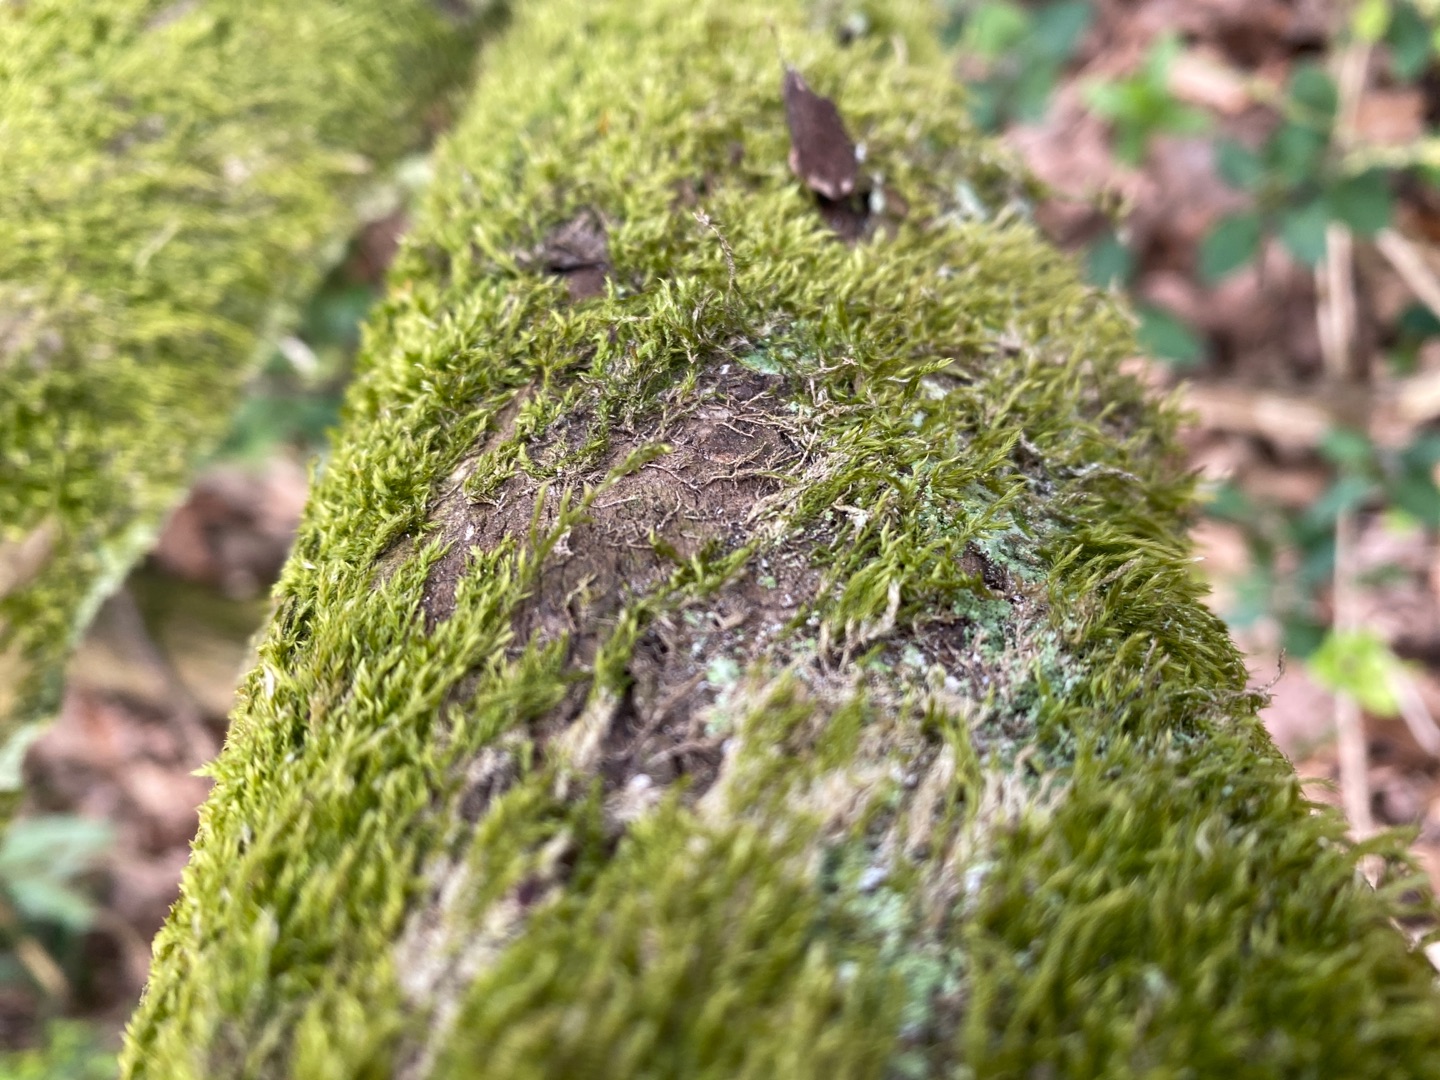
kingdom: Plantae
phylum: Bryophyta
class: Bryopsida
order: Hypnales
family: Hypnaceae
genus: Hypnum
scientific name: Hypnum
